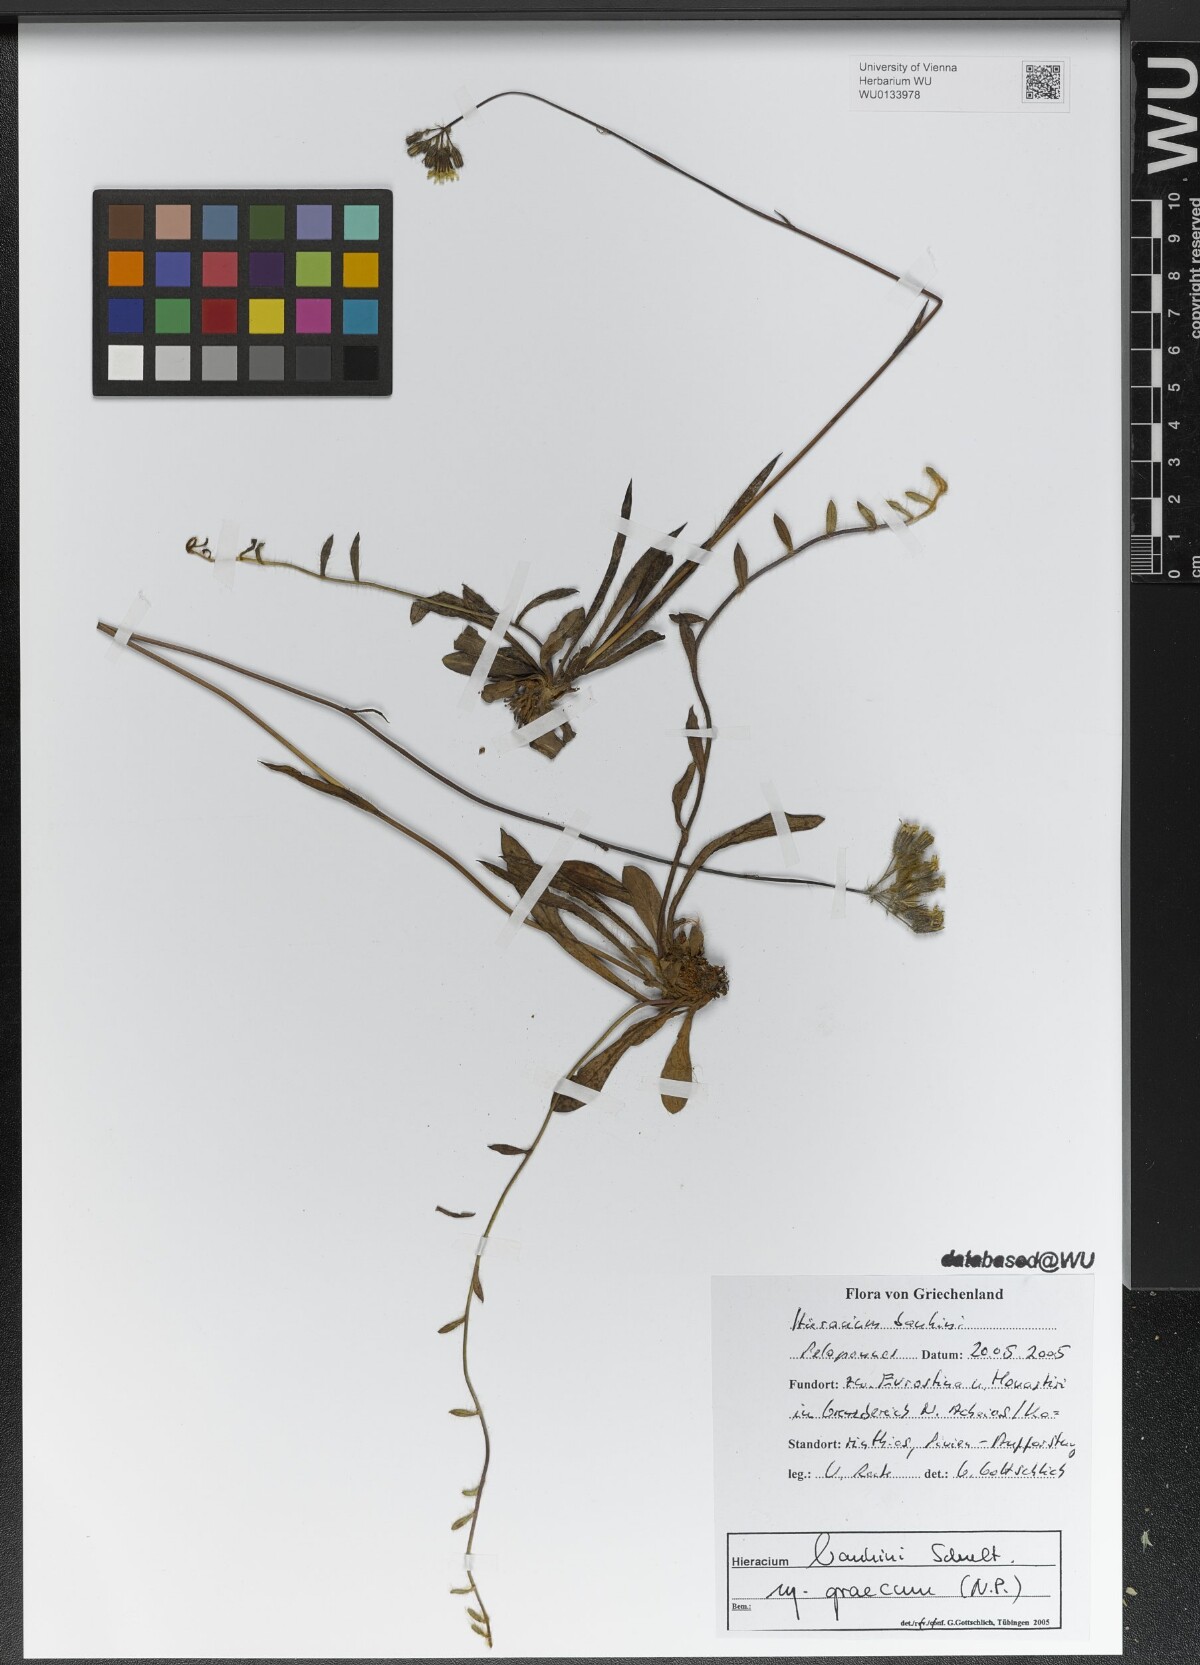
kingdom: Plantae
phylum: Tracheophyta
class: Magnoliopsida
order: Asterales
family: Asteraceae
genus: Pilosella
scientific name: Pilosella bauhini
